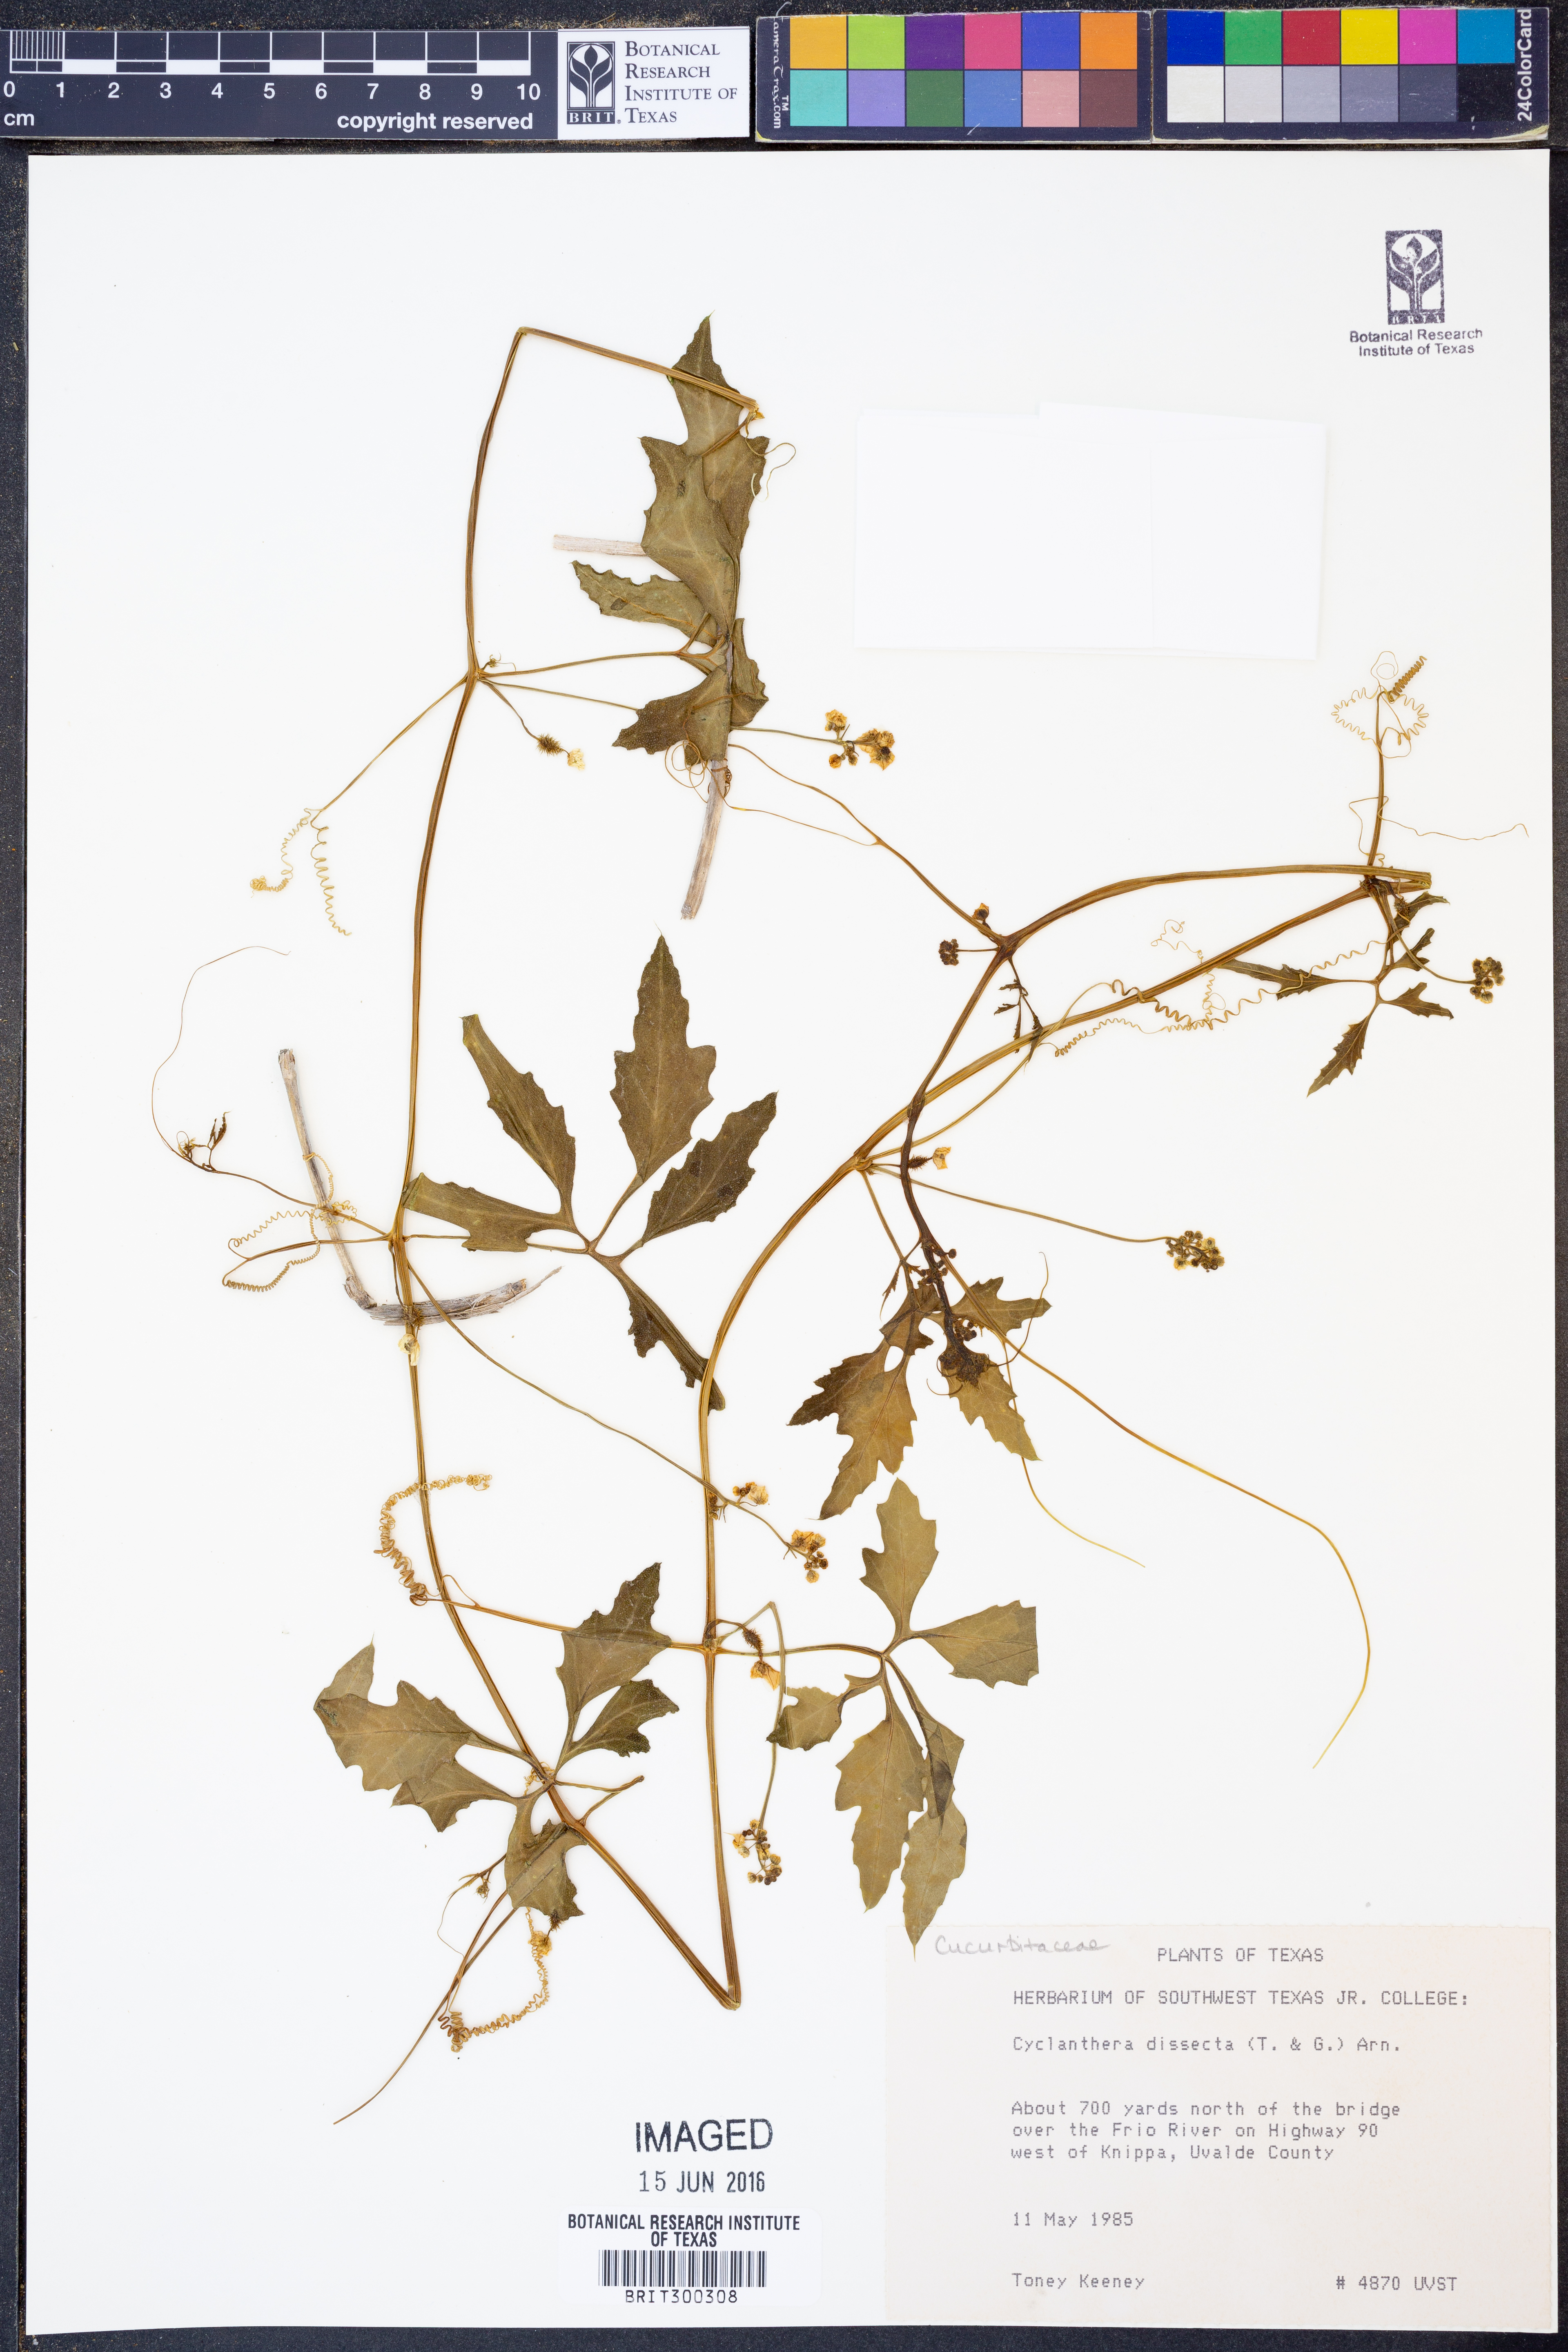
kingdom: Plantae
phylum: Tracheophyta
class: Magnoliopsida
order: Cucurbitales
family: Cucurbitaceae
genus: Cyclanthera
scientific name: Cyclanthera dissecta
